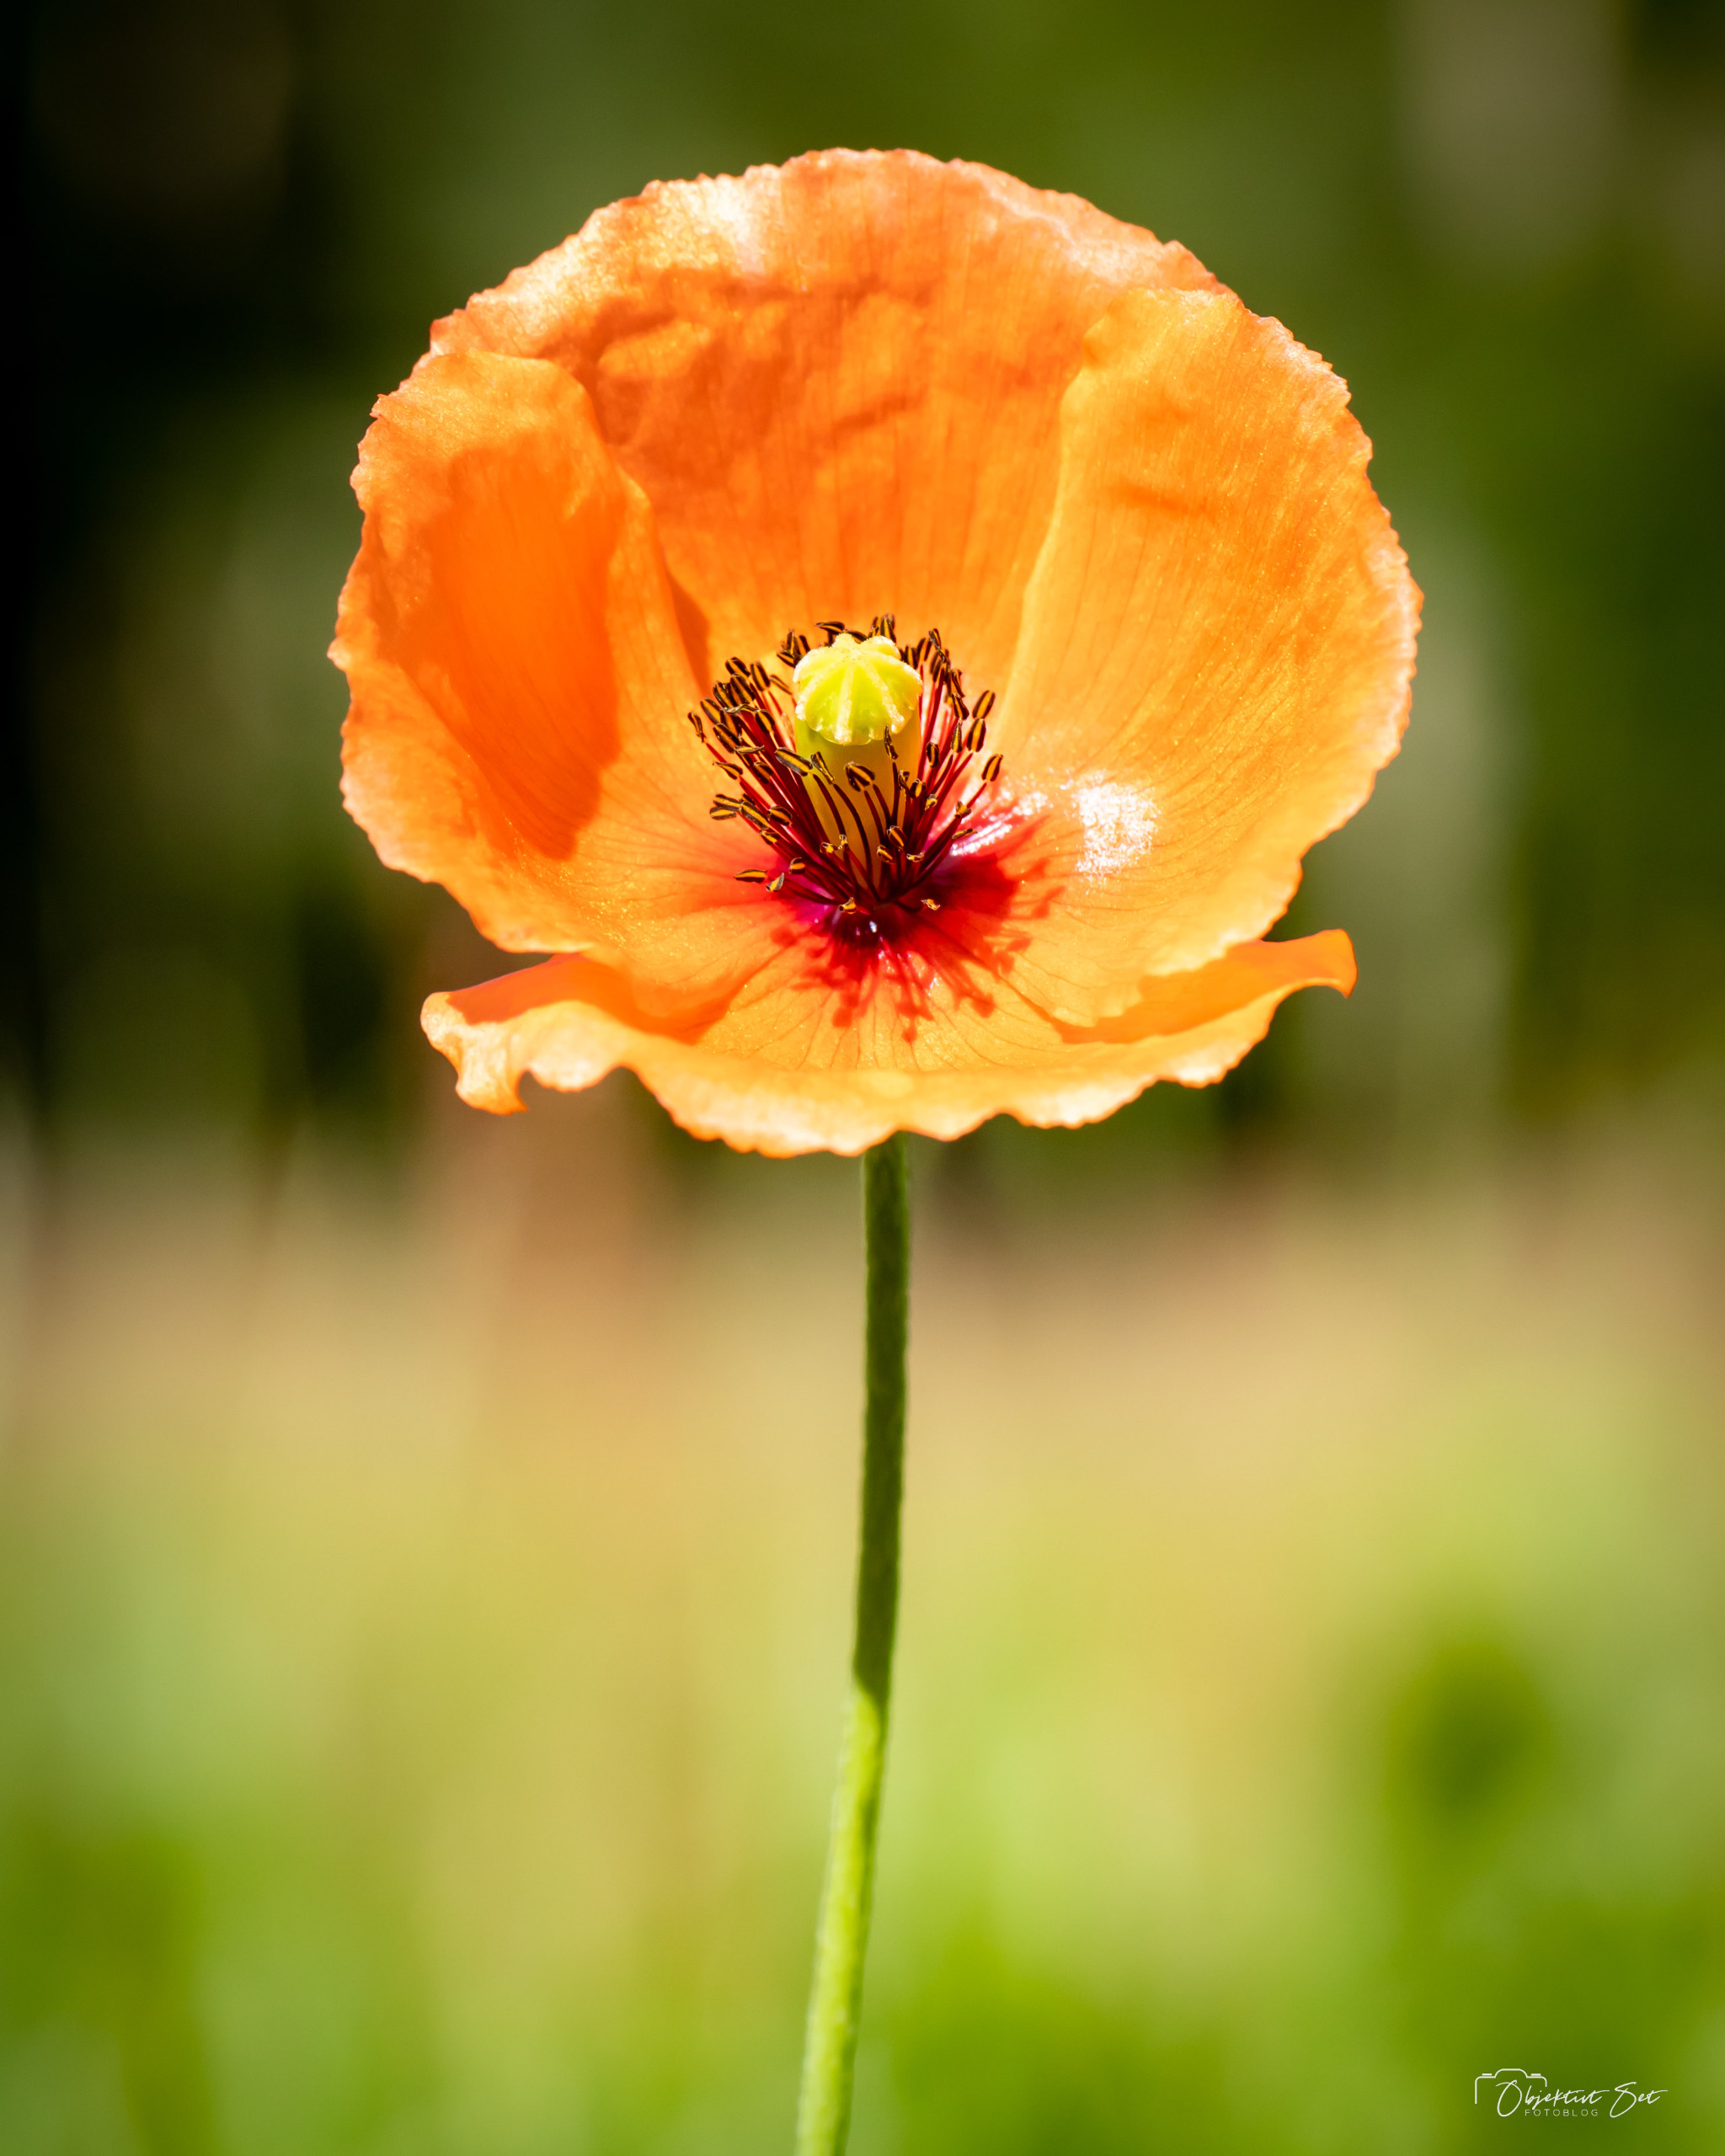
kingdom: Plantae
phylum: Tracheophyta
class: Magnoliopsida
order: Ranunculales
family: Papaveraceae
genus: Papaver
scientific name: Papaver dubium
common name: Gærde-valmue
